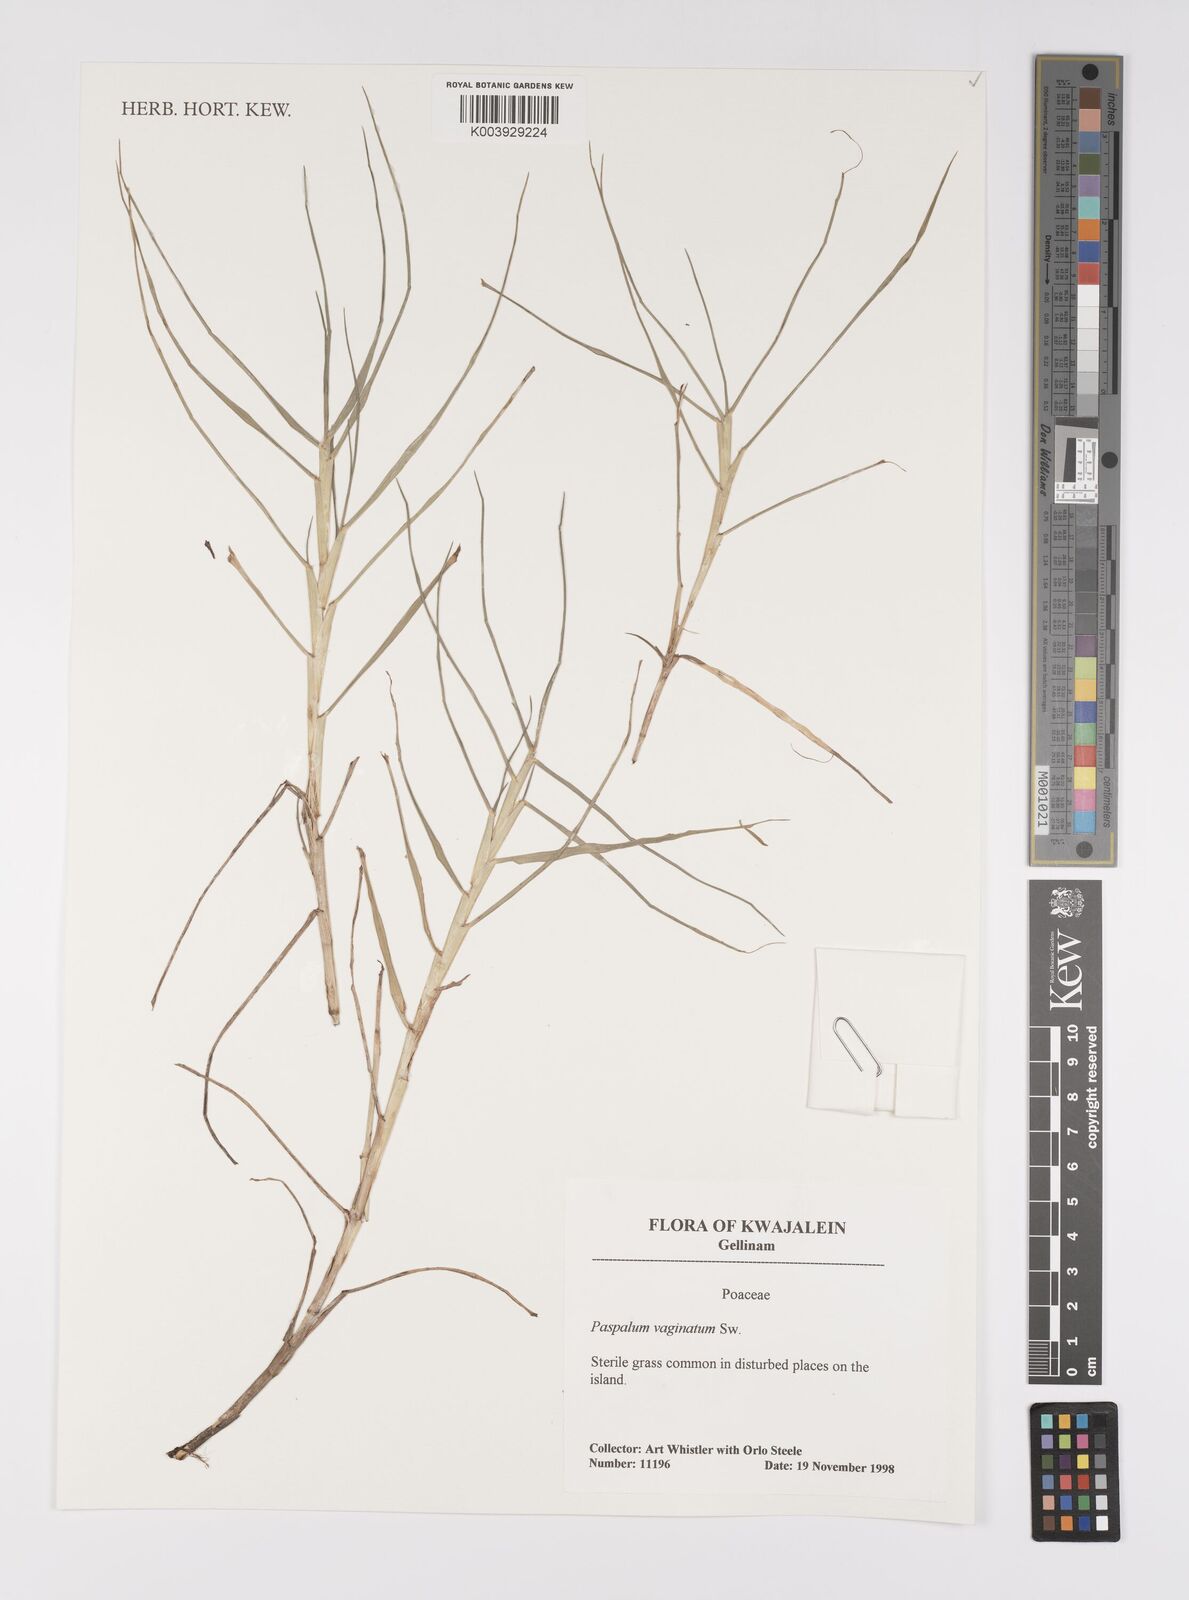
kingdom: Plantae
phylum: Tracheophyta
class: Liliopsida
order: Poales
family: Poaceae
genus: Paspalum
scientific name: Paspalum vaginatum
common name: Seashore paspalum
